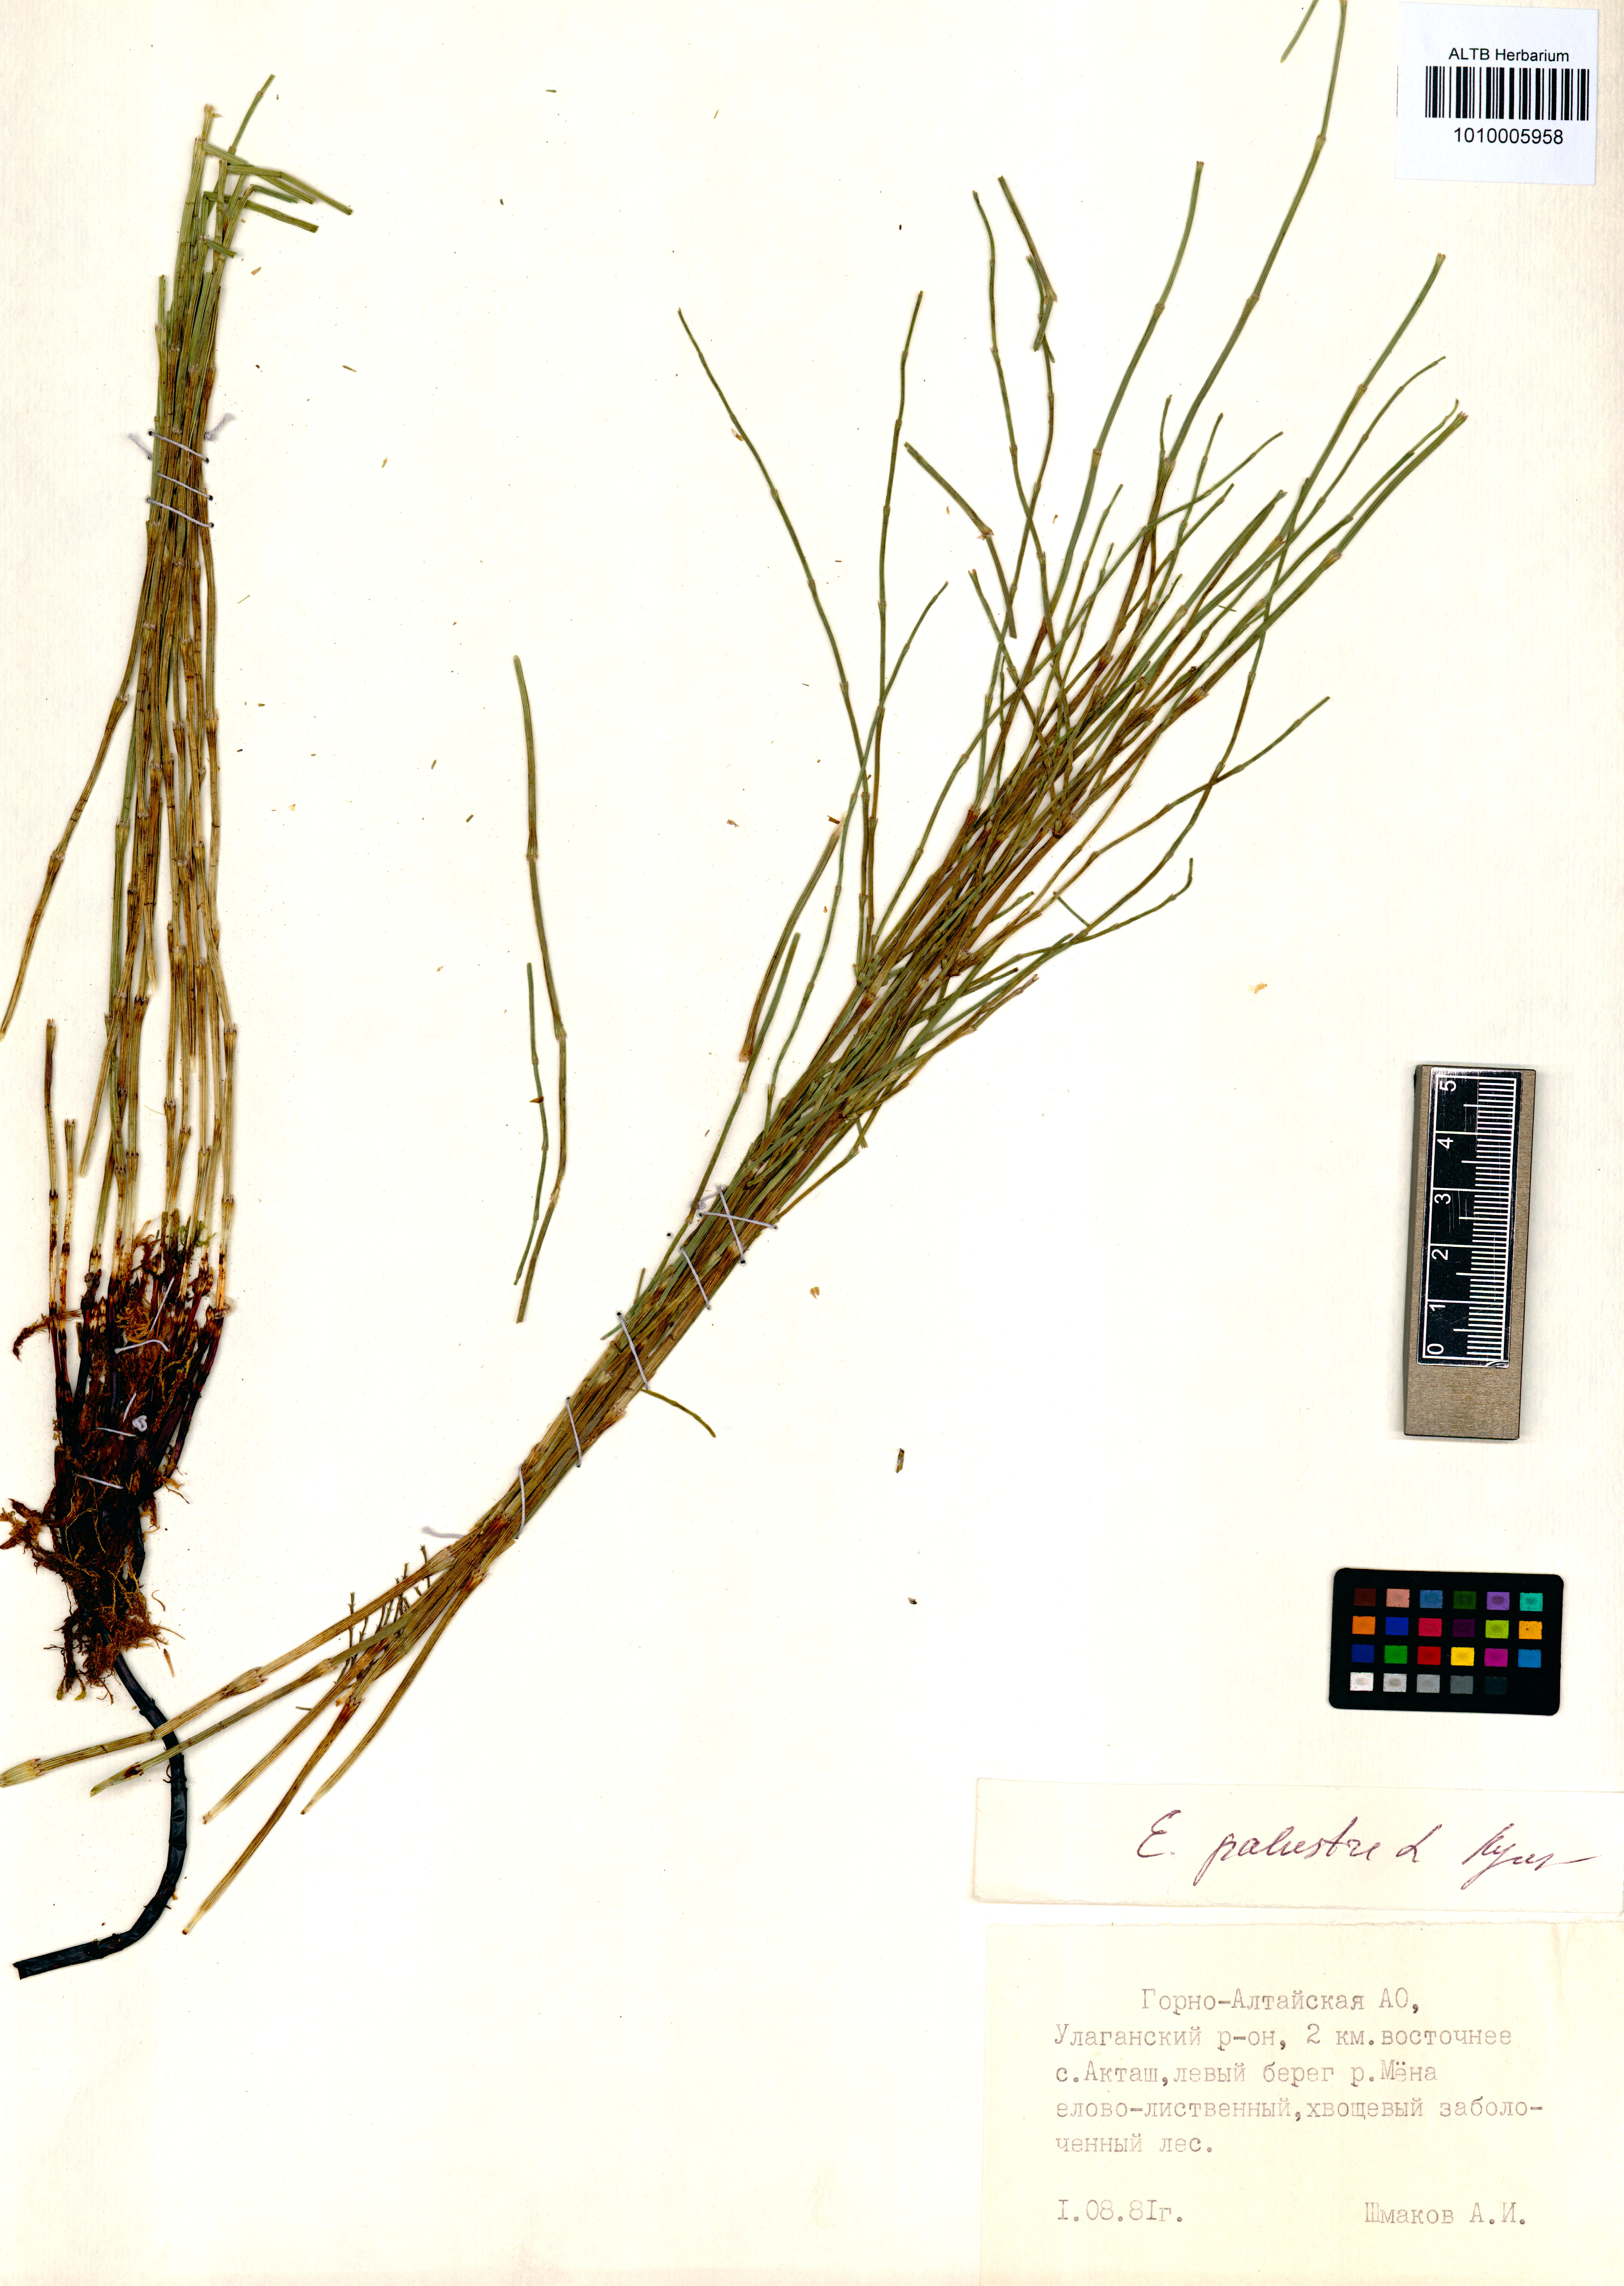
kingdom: Plantae
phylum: Tracheophyta
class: Polypodiopsida
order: Equisetales
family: Equisetaceae
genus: Equisetum
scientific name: Equisetum palustre
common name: Marsh horsetail
